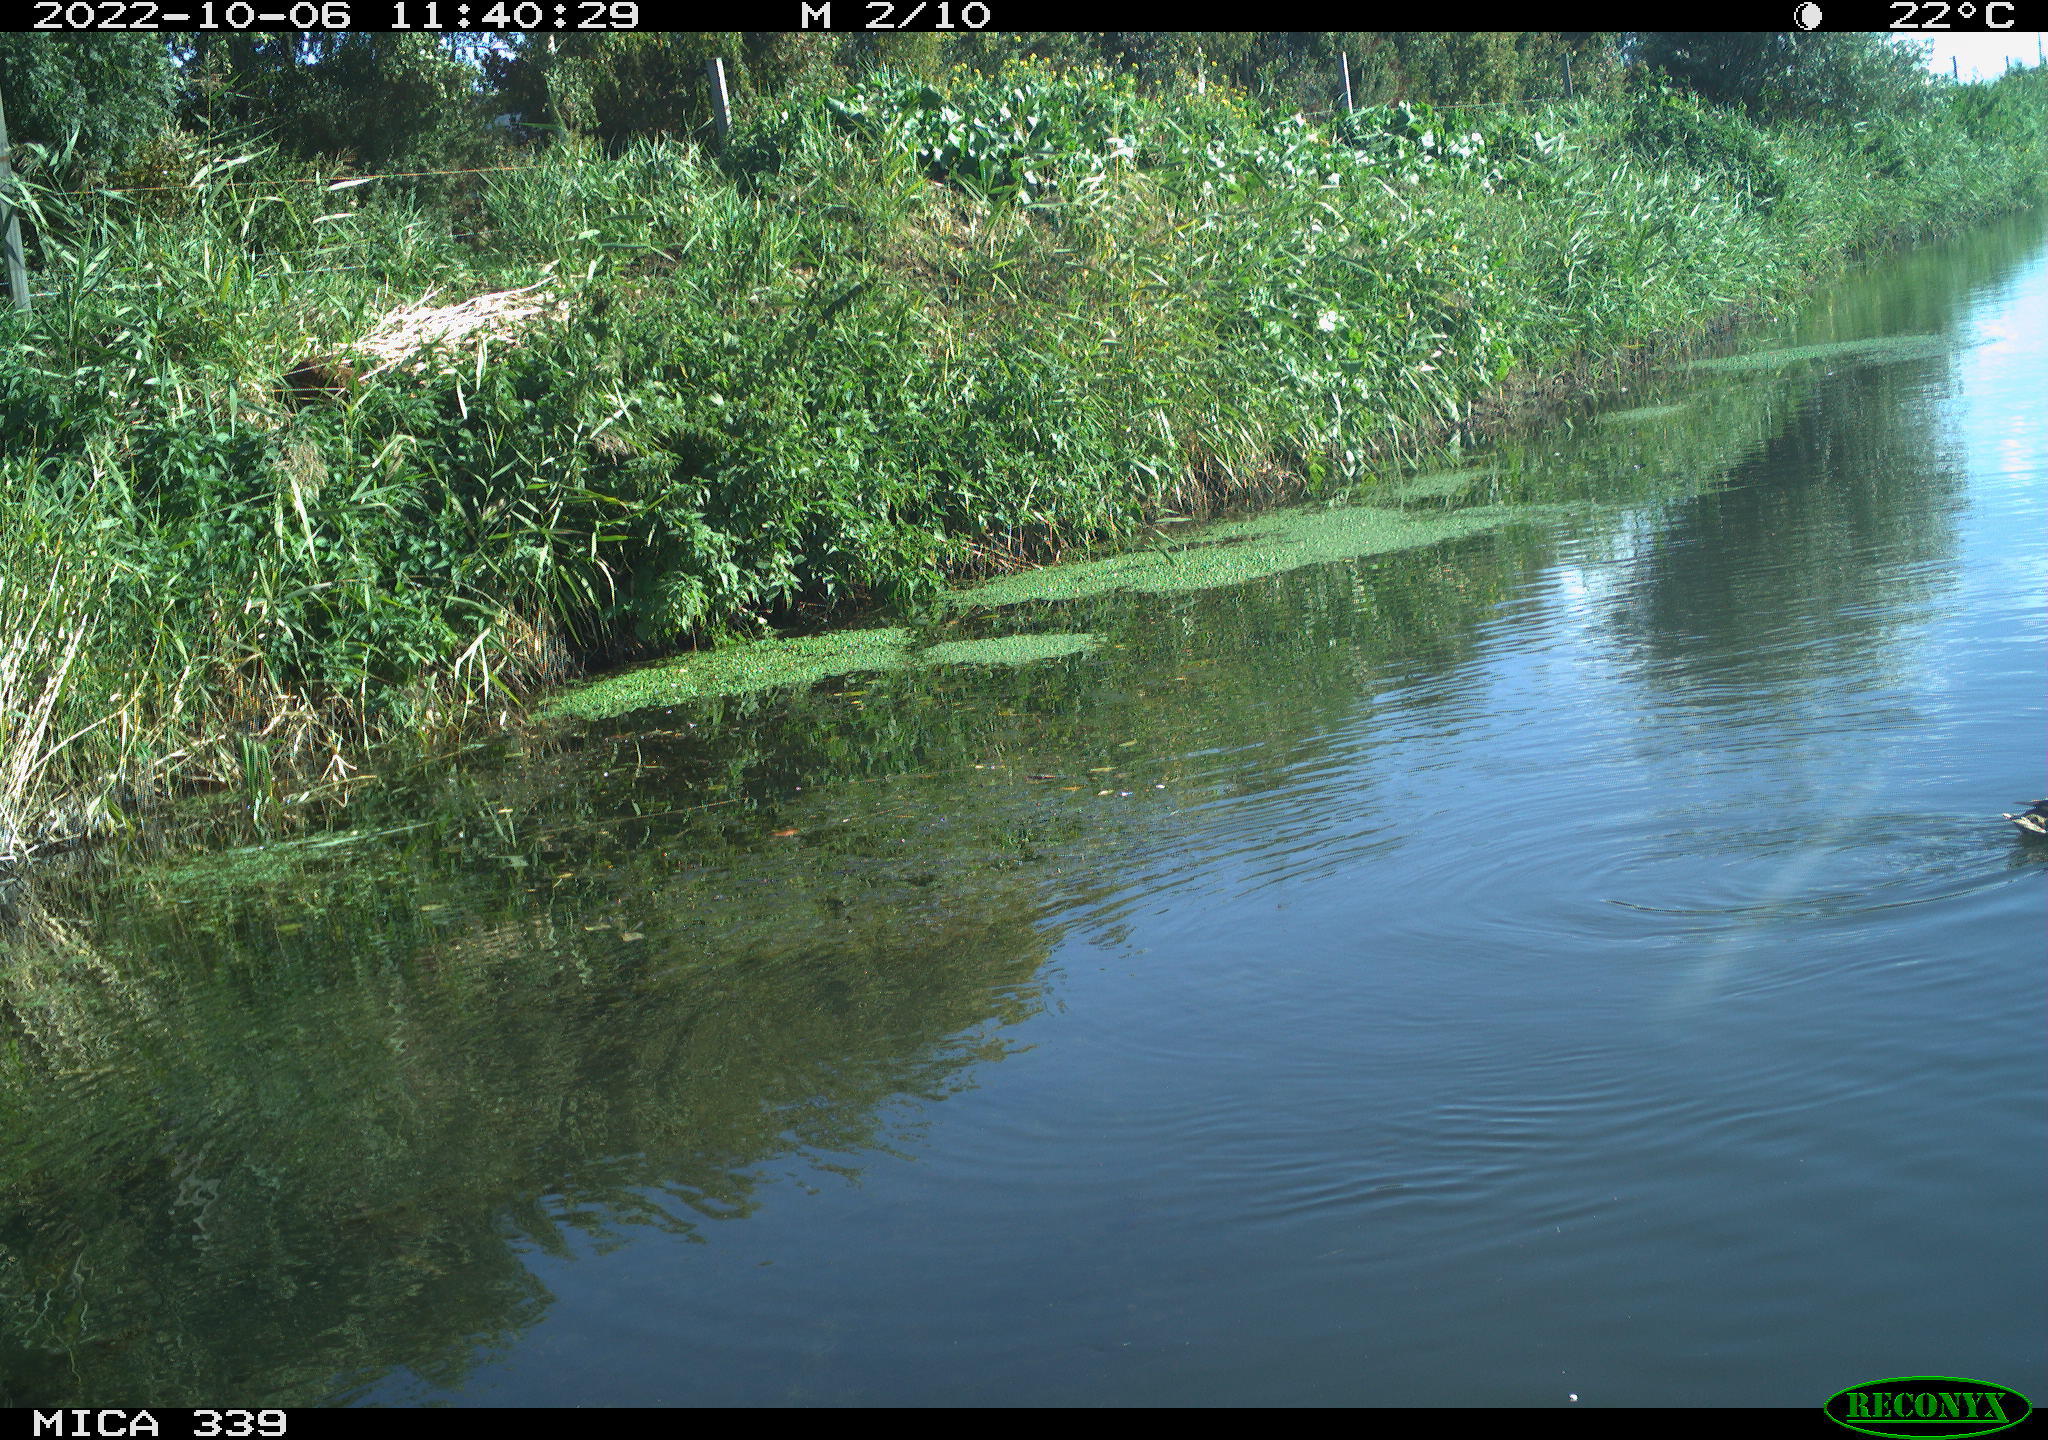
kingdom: Animalia
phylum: Chordata
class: Aves
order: Anseriformes
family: Anatidae
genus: Anas
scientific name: Anas platyrhynchos
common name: Mallard
